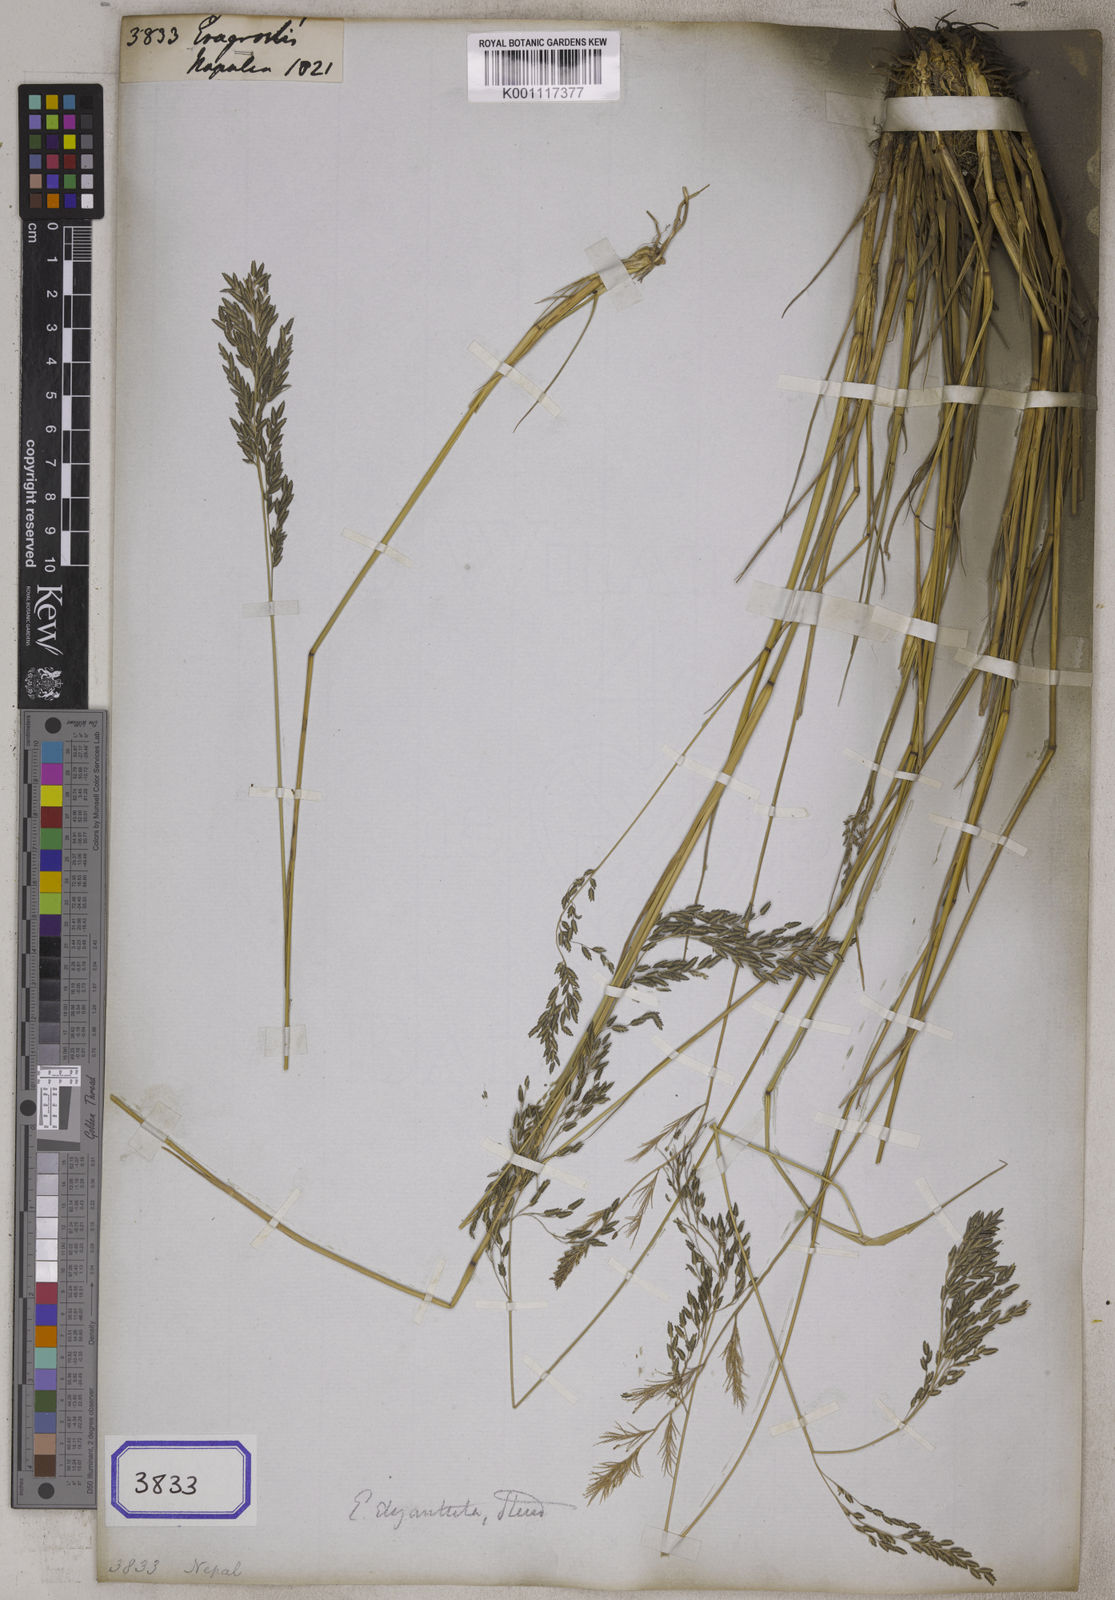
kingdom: Plantae
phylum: Tracheophyta
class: Liliopsida
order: Poales
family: Poaceae
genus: Eragrostis
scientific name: Eragrostis
